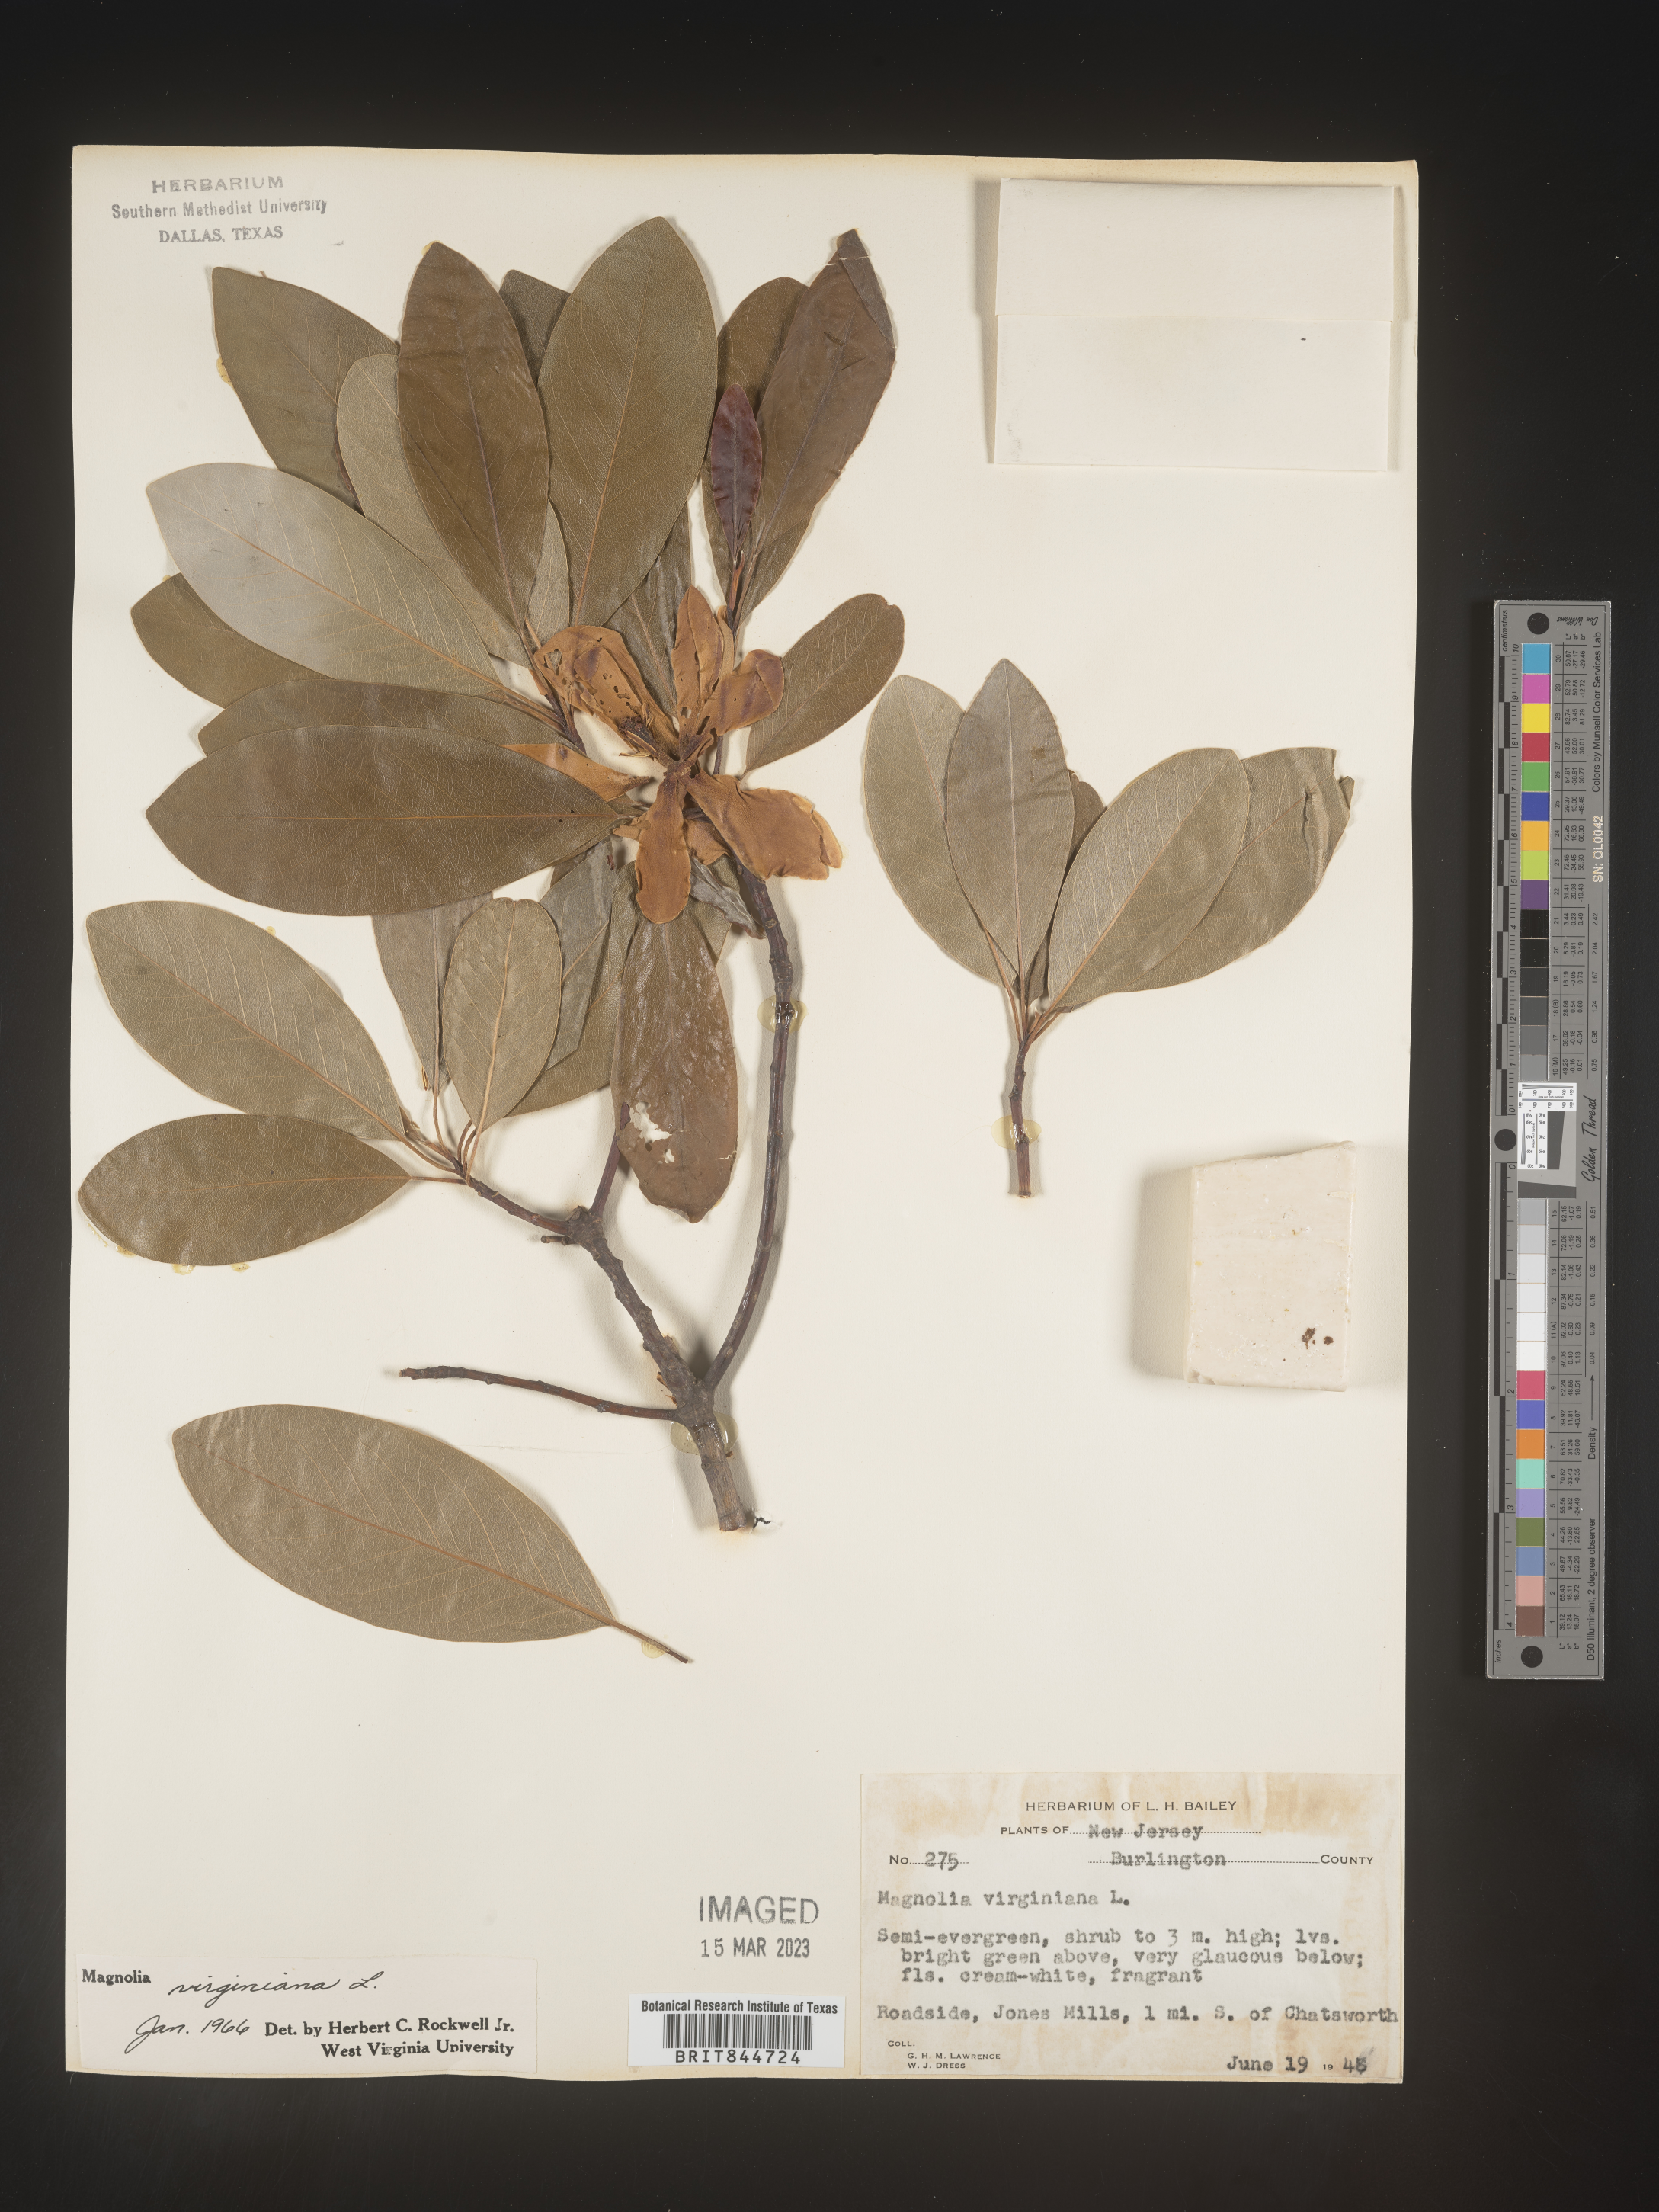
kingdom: Plantae
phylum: Tracheophyta
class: Magnoliopsida
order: Magnoliales
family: Magnoliaceae
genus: Magnolia
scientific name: Magnolia virginiana
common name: Swamp bay
